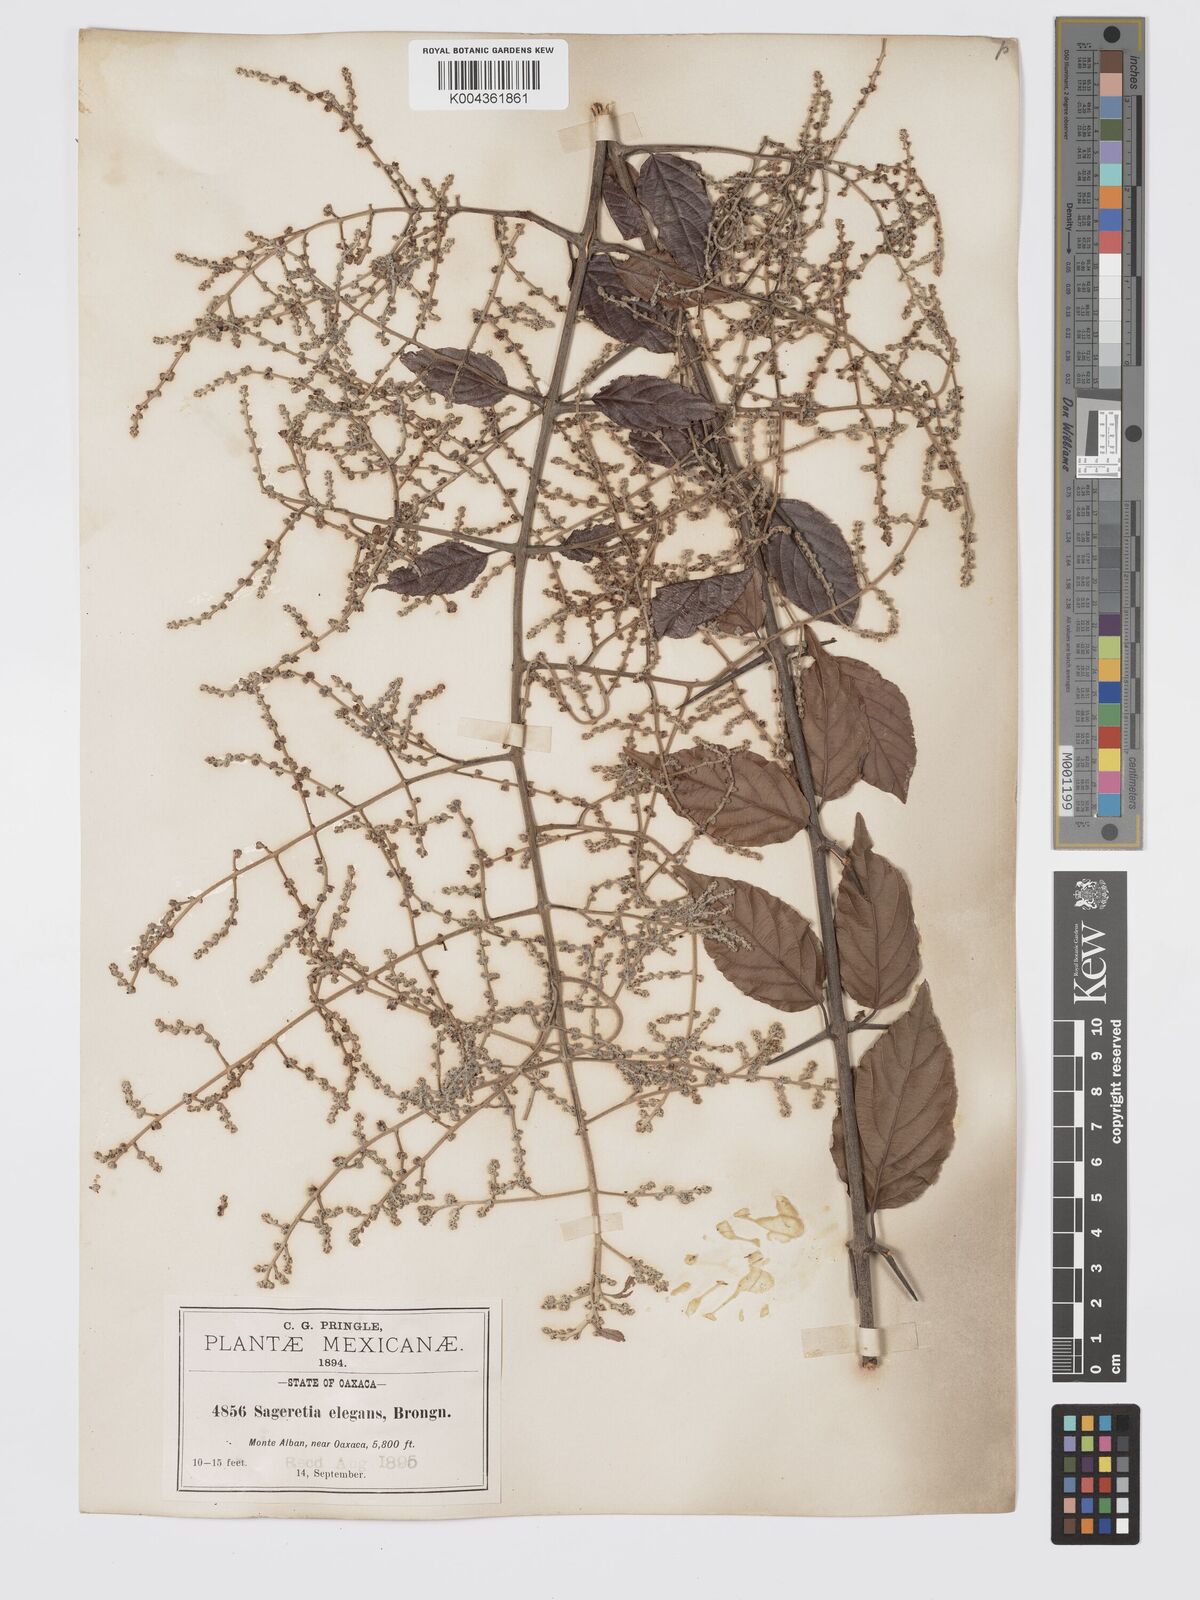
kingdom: Plantae
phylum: Tracheophyta
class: Magnoliopsida
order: Rosales
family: Rhamnaceae
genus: Sageretia
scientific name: Sageretia elegans
